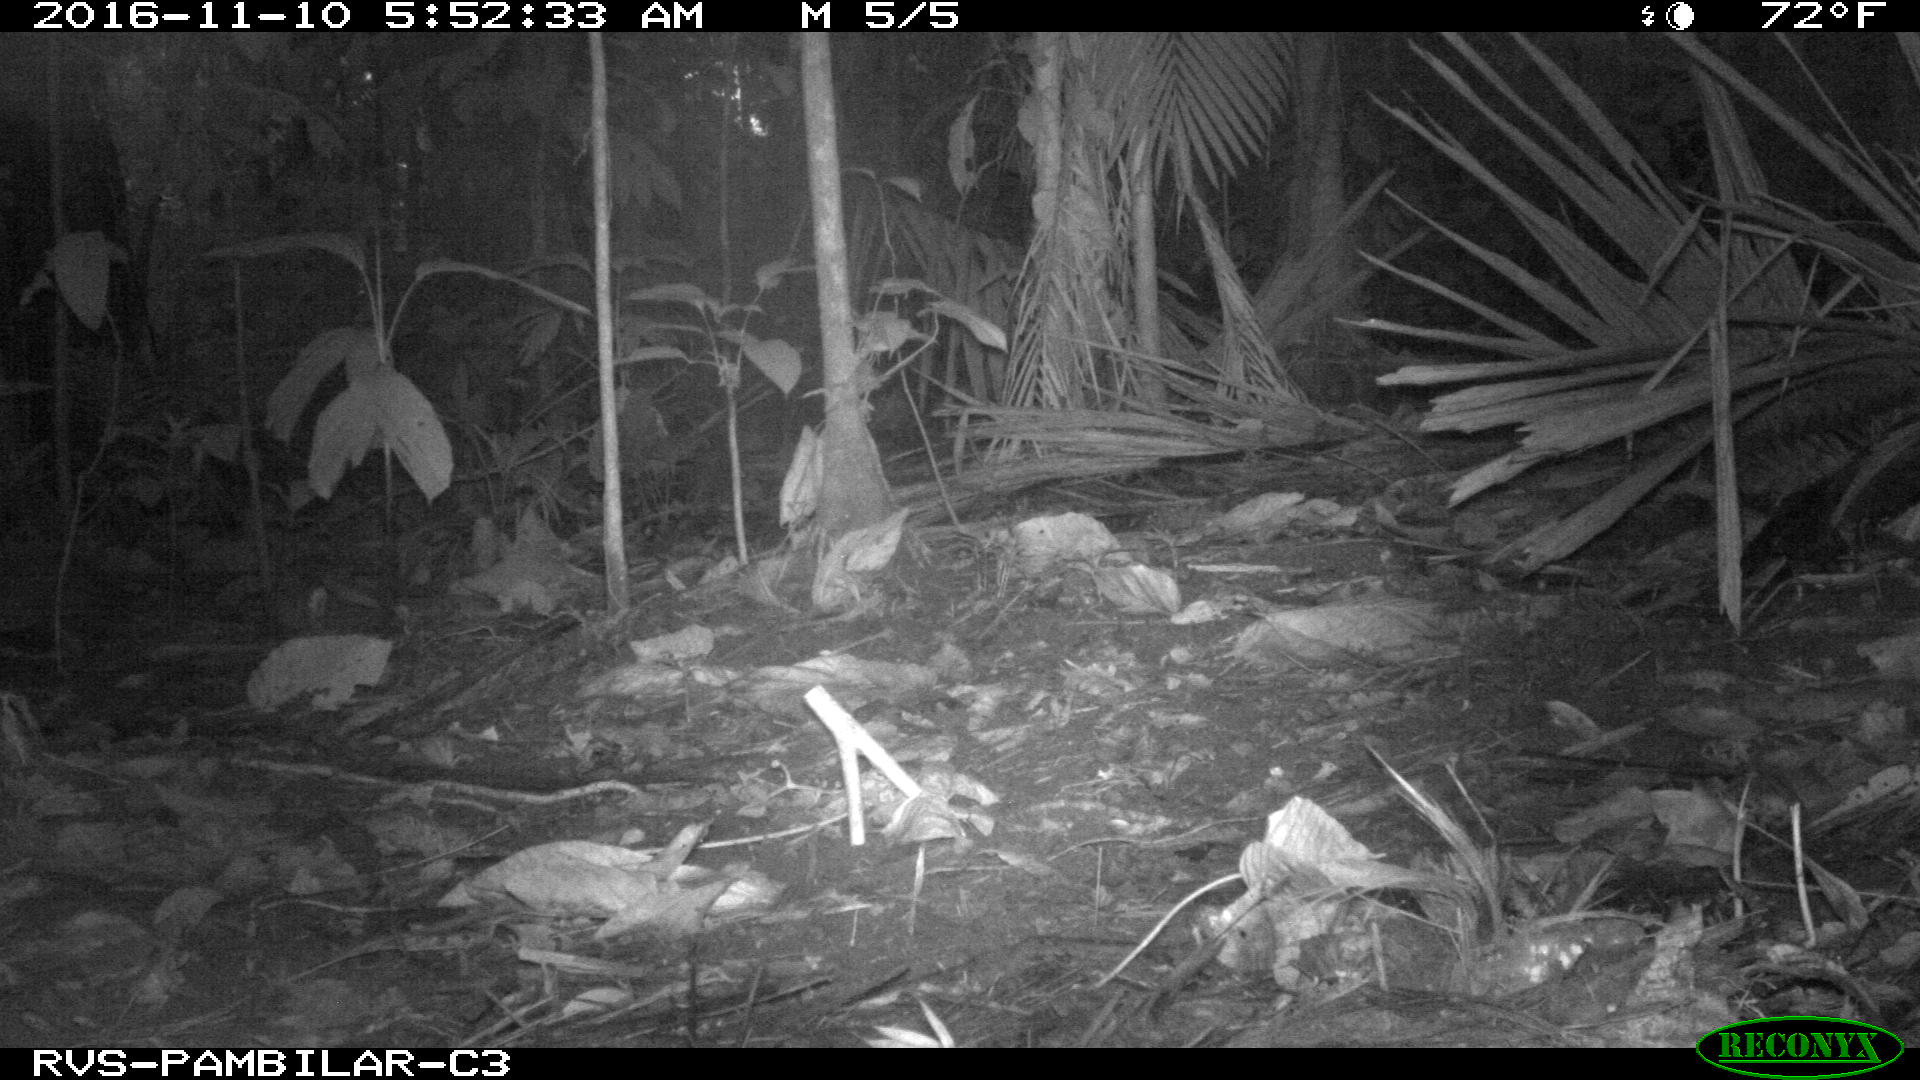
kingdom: Animalia
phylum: Chordata
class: Mammalia
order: Artiodactyla
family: Tayassuidae
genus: Tayassu
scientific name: Tayassu pecari
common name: White-lipped peccary
